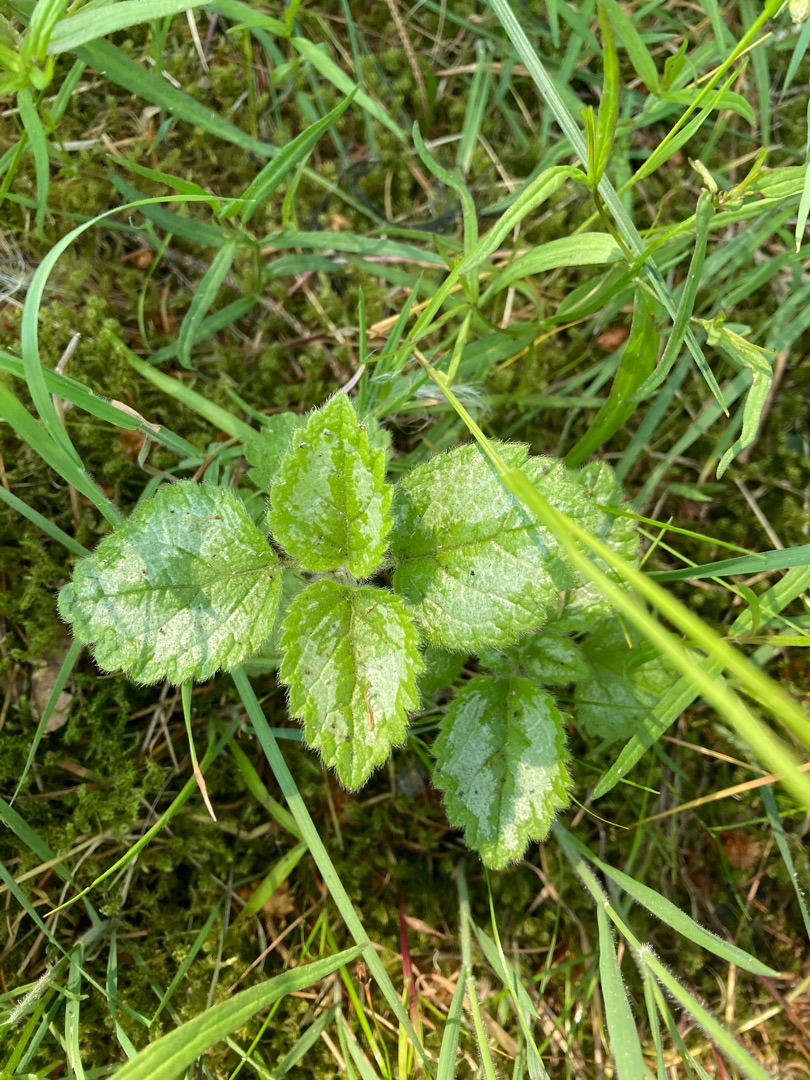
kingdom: Plantae
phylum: Tracheophyta
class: Magnoliopsida
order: Lamiales
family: Lamiaceae
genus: Lamium
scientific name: Lamium galeobdolon
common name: Have-guldnælde
